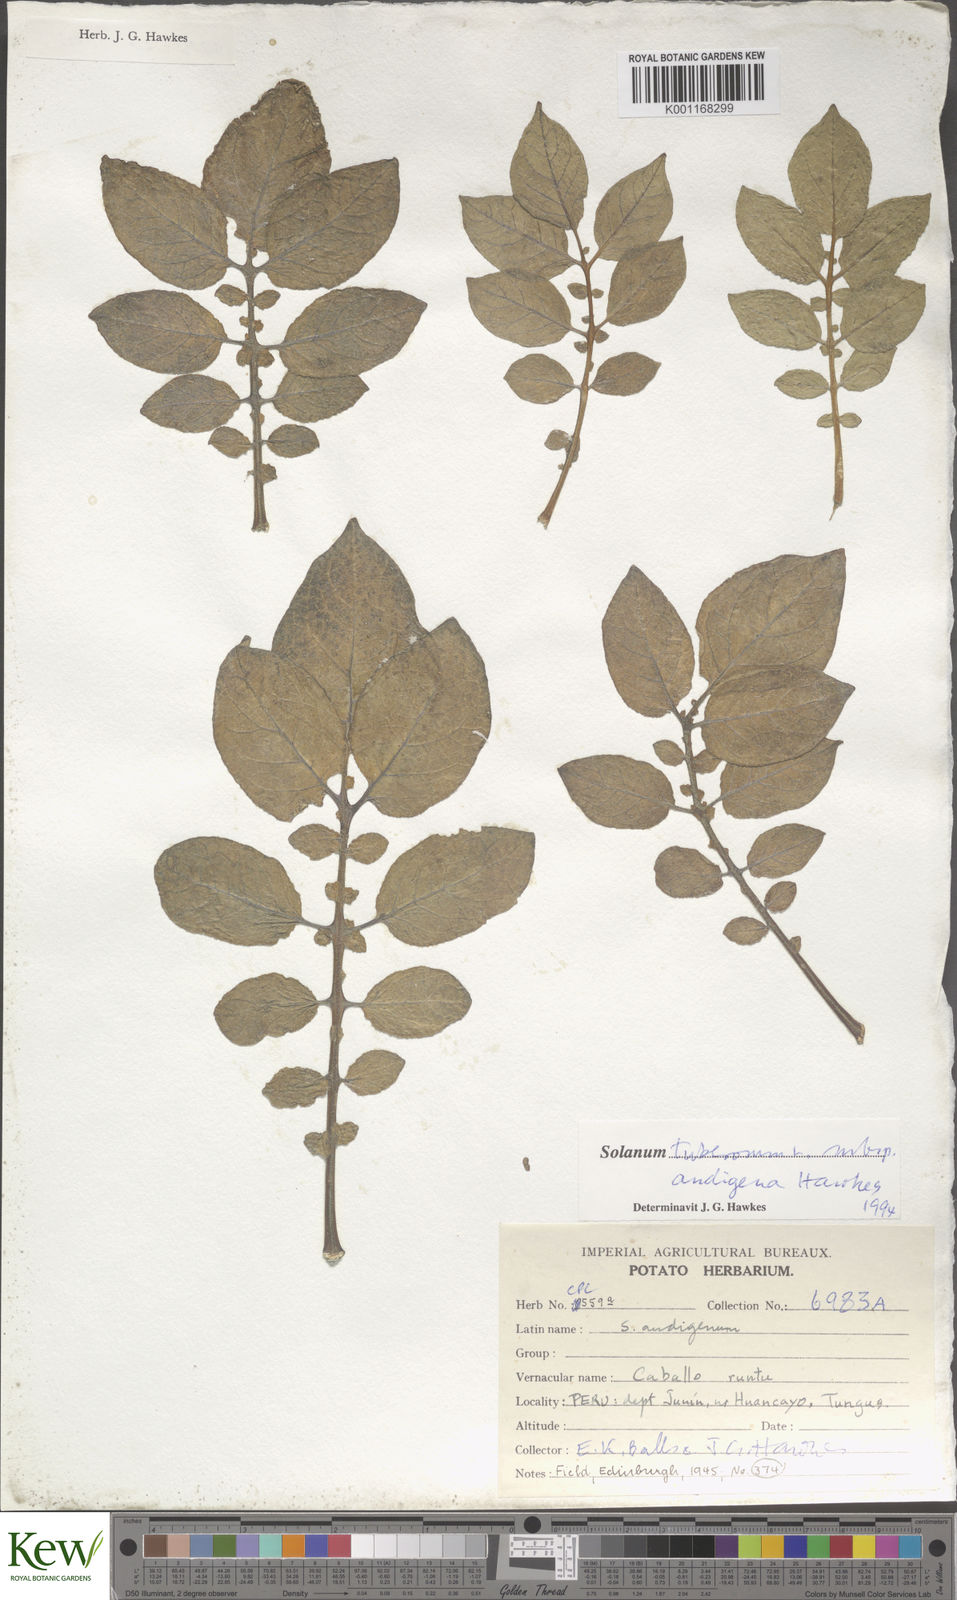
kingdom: Plantae
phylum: Tracheophyta
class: Magnoliopsida
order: Solanales
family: Solanaceae
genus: Solanum
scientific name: Solanum tuberosum
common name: Potato
